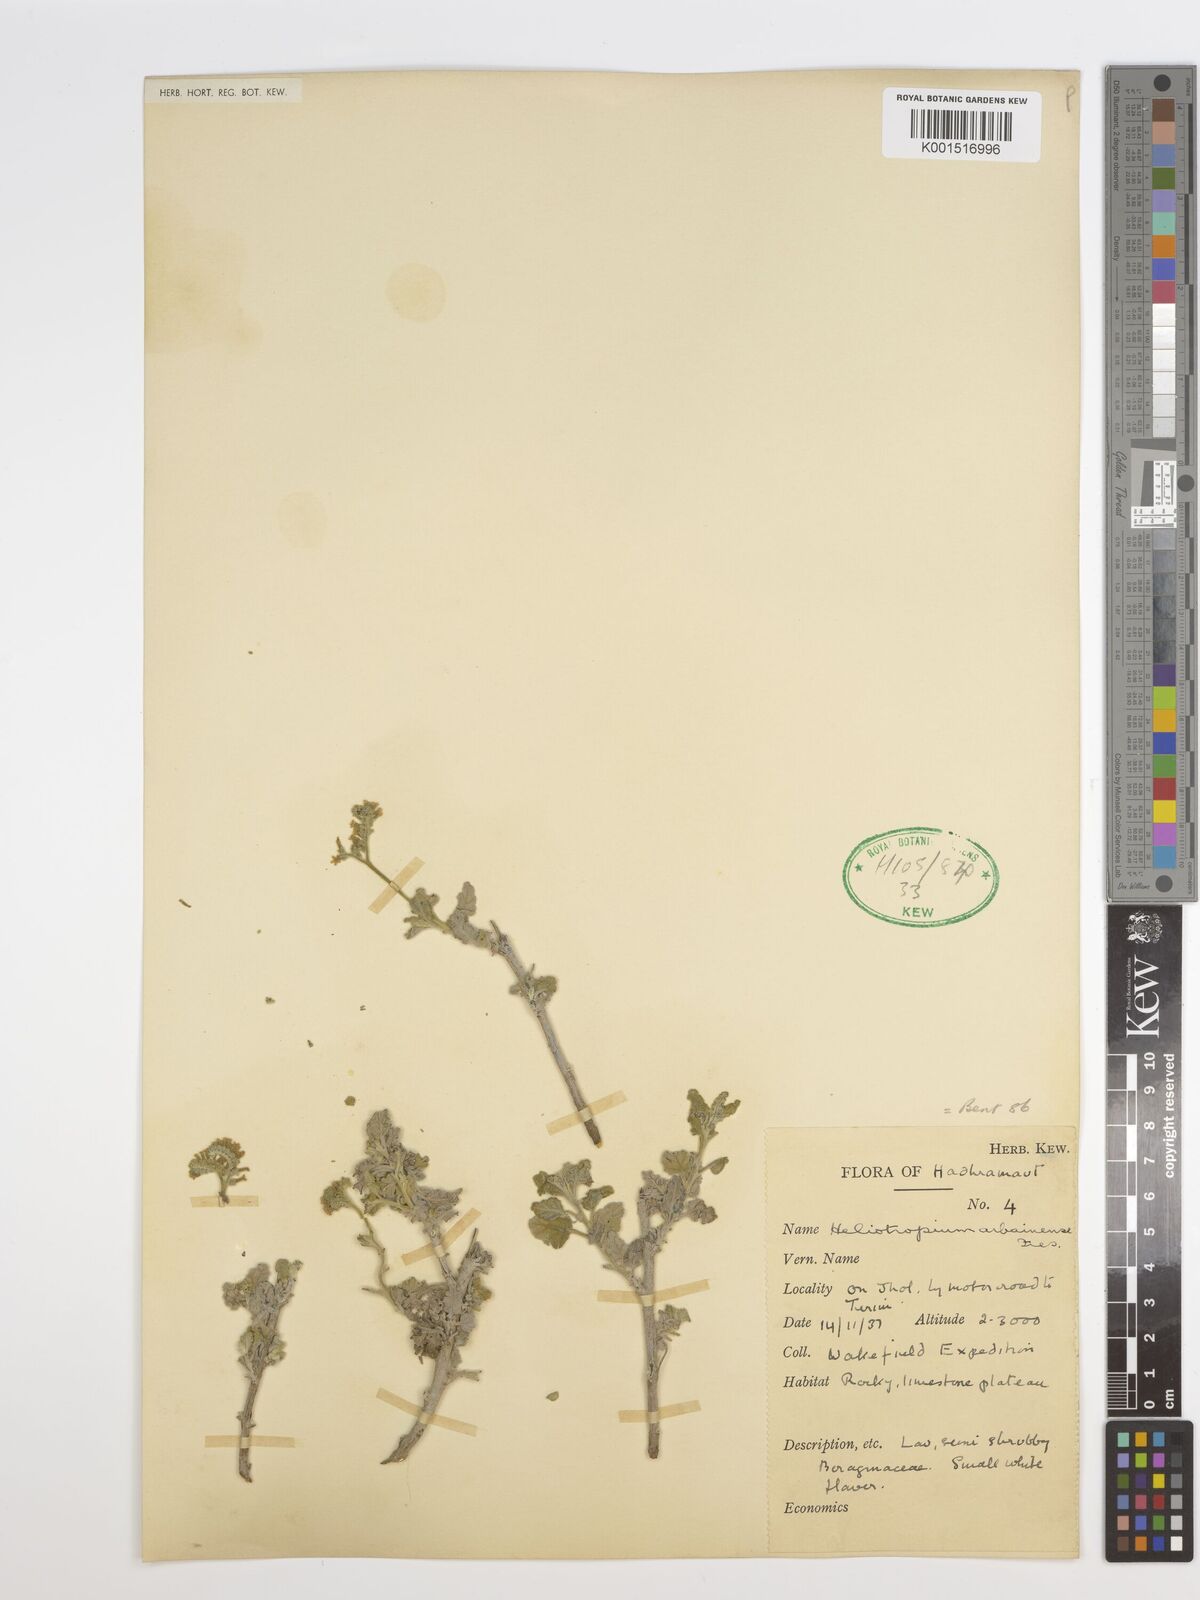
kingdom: Plantae
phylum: Tracheophyta
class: Magnoliopsida
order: Boraginales
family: Heliotropiaceae
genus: Heliotropium
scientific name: Heliotropium arbainense
